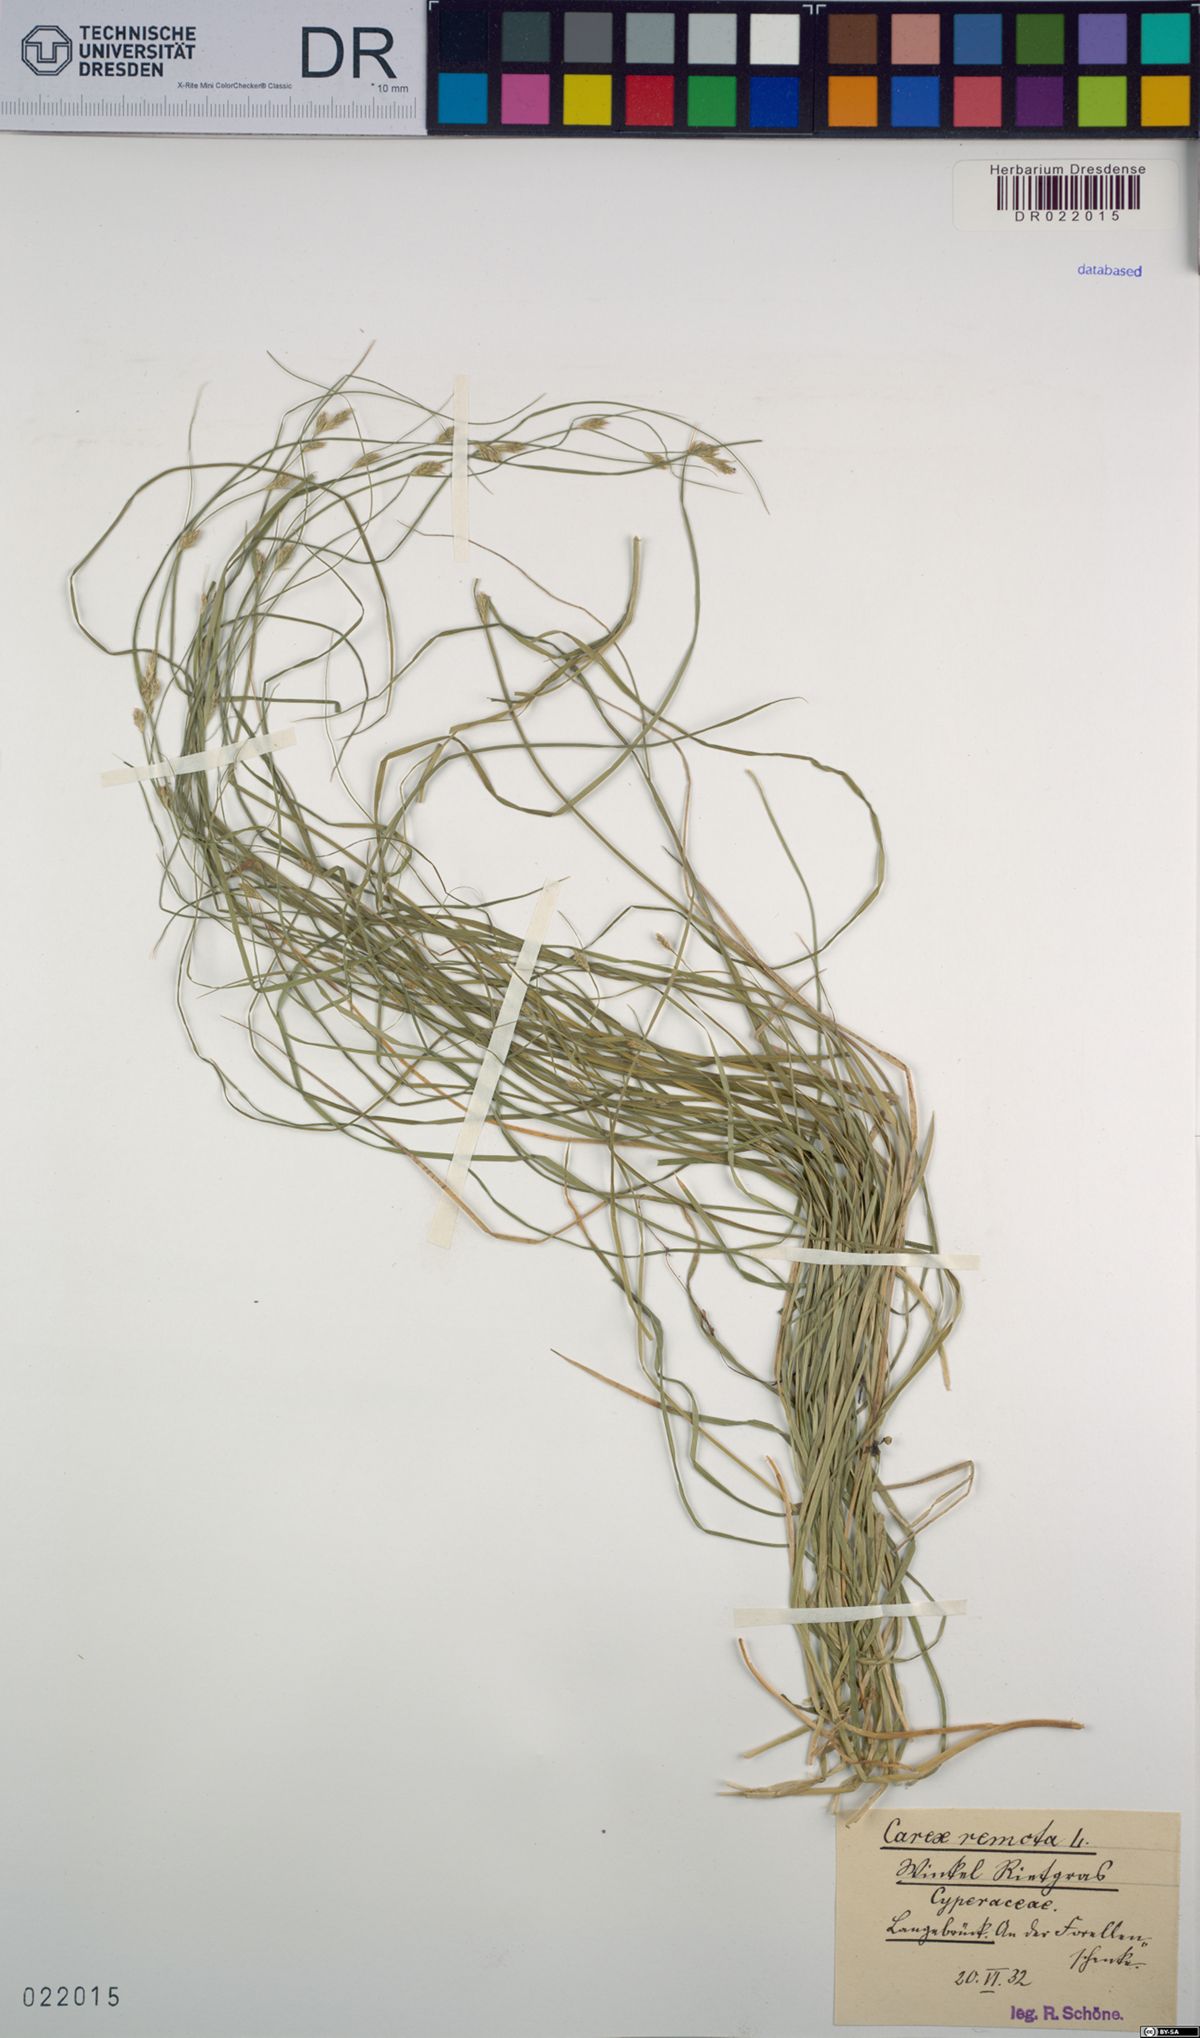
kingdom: Plantae
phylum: Tracheophyta
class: Liliopsida
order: Poales
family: Cyperaceae
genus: Carex
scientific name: Carex remota
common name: Remote sedge
